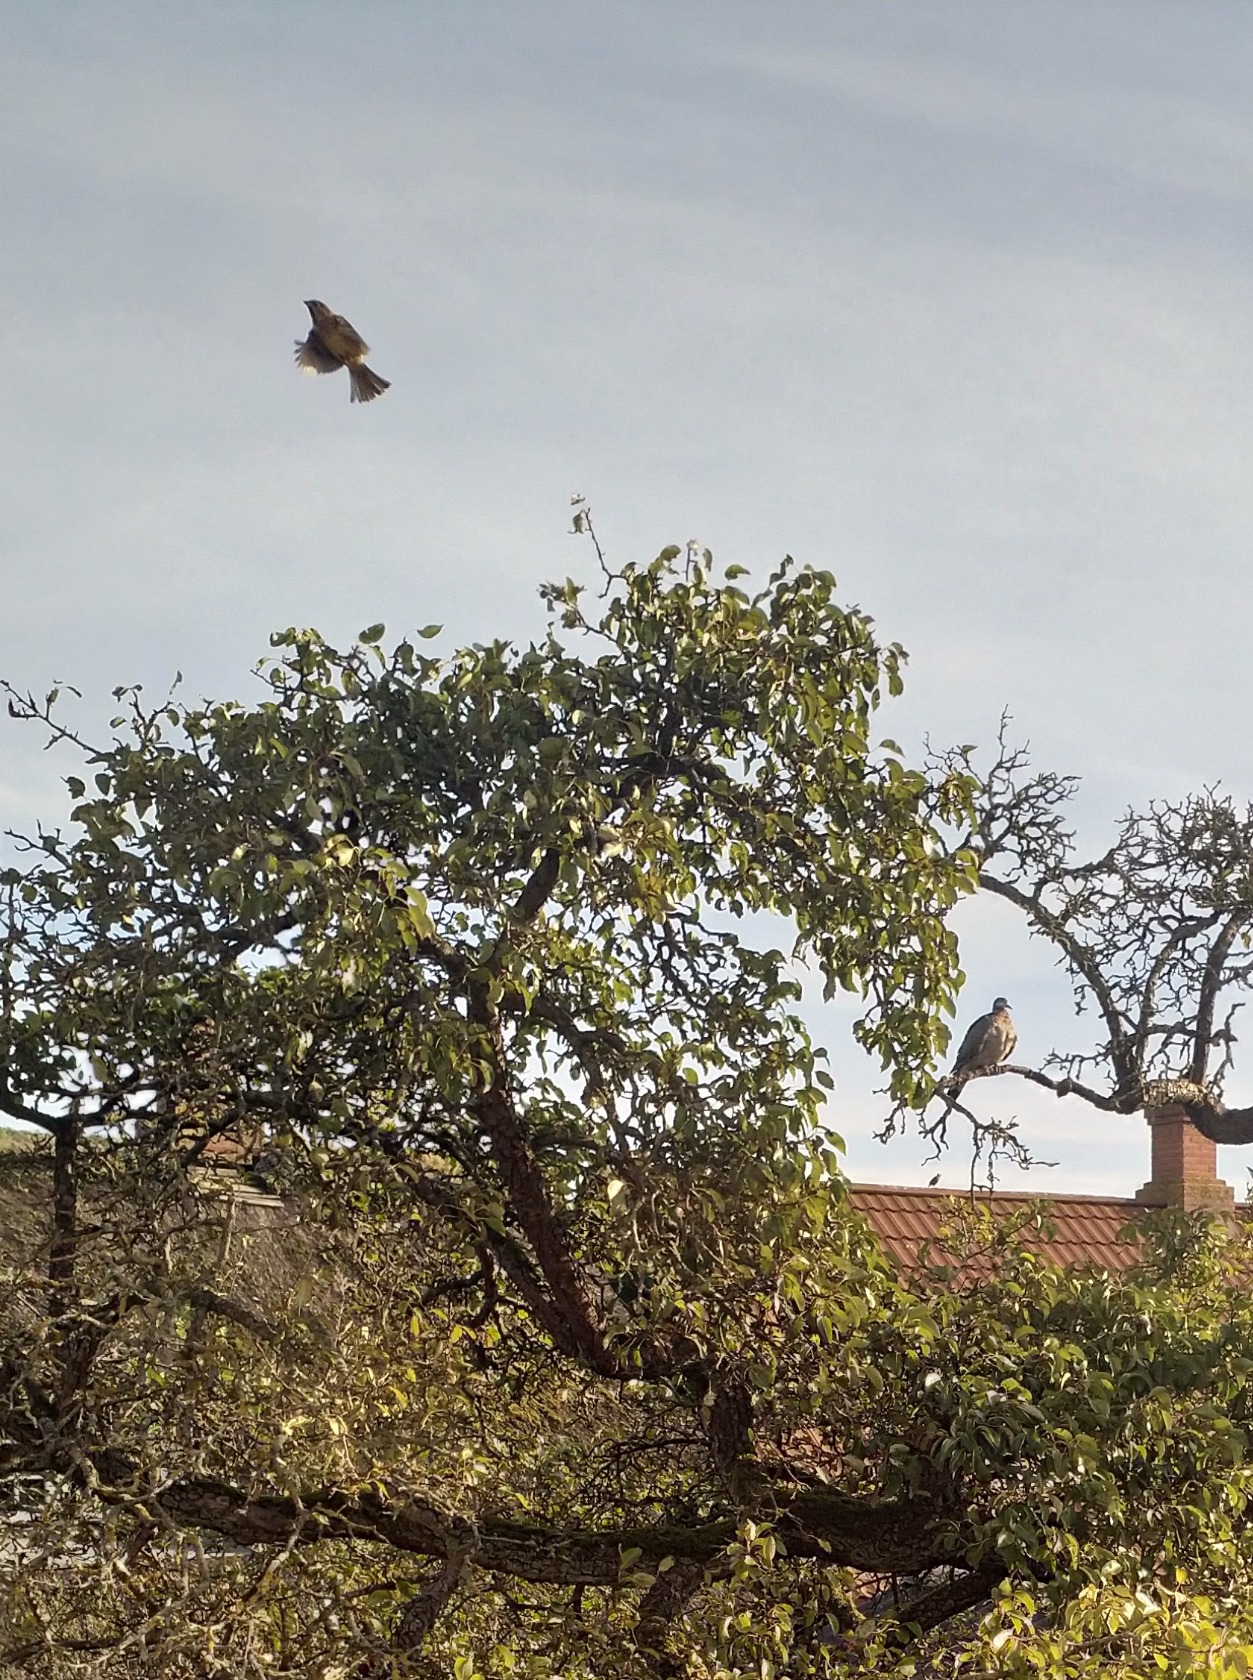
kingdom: Animalia
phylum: Chordata
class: Aves
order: Passeriformes
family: Emberizidae
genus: Emberiza
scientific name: Emberiza citrinella
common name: Gulspurv
